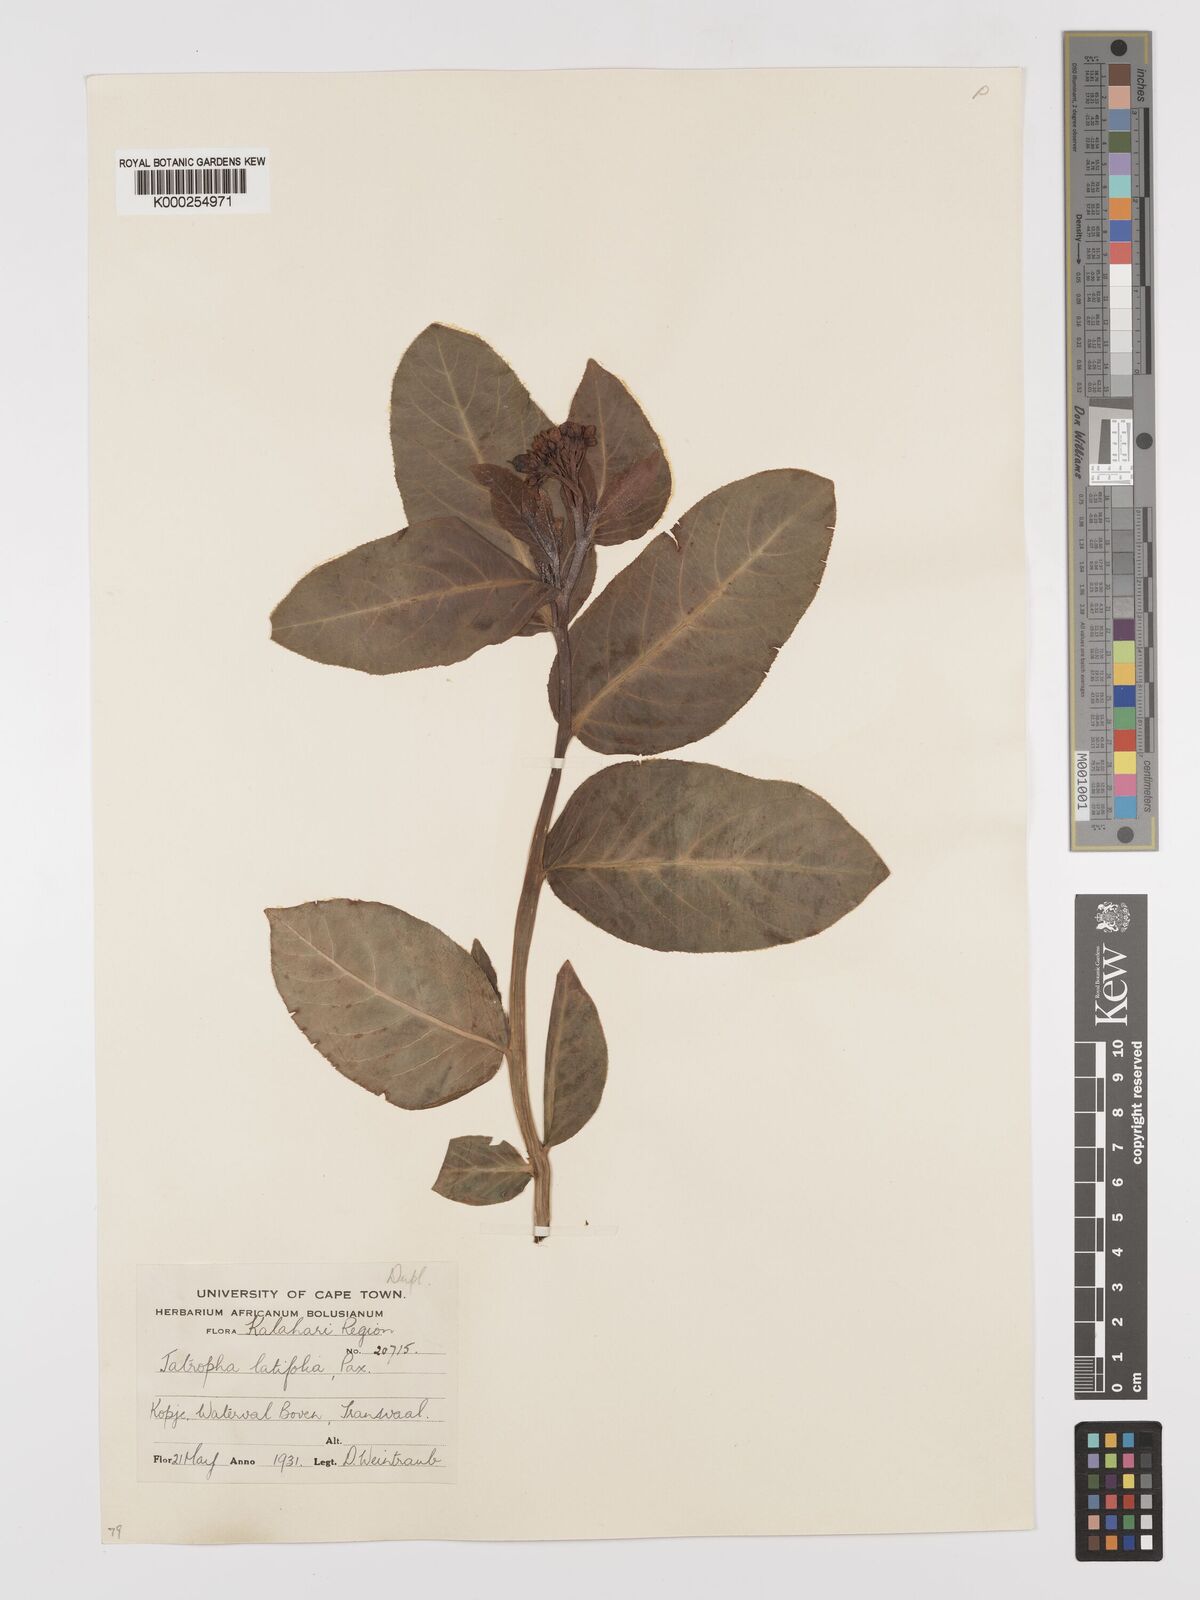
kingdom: Plantae
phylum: Tracheophyta
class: Magnoliopsida
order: Malpighiales
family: Euphorbiaceae
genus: Jatropha
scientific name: Jatropha latifolia
